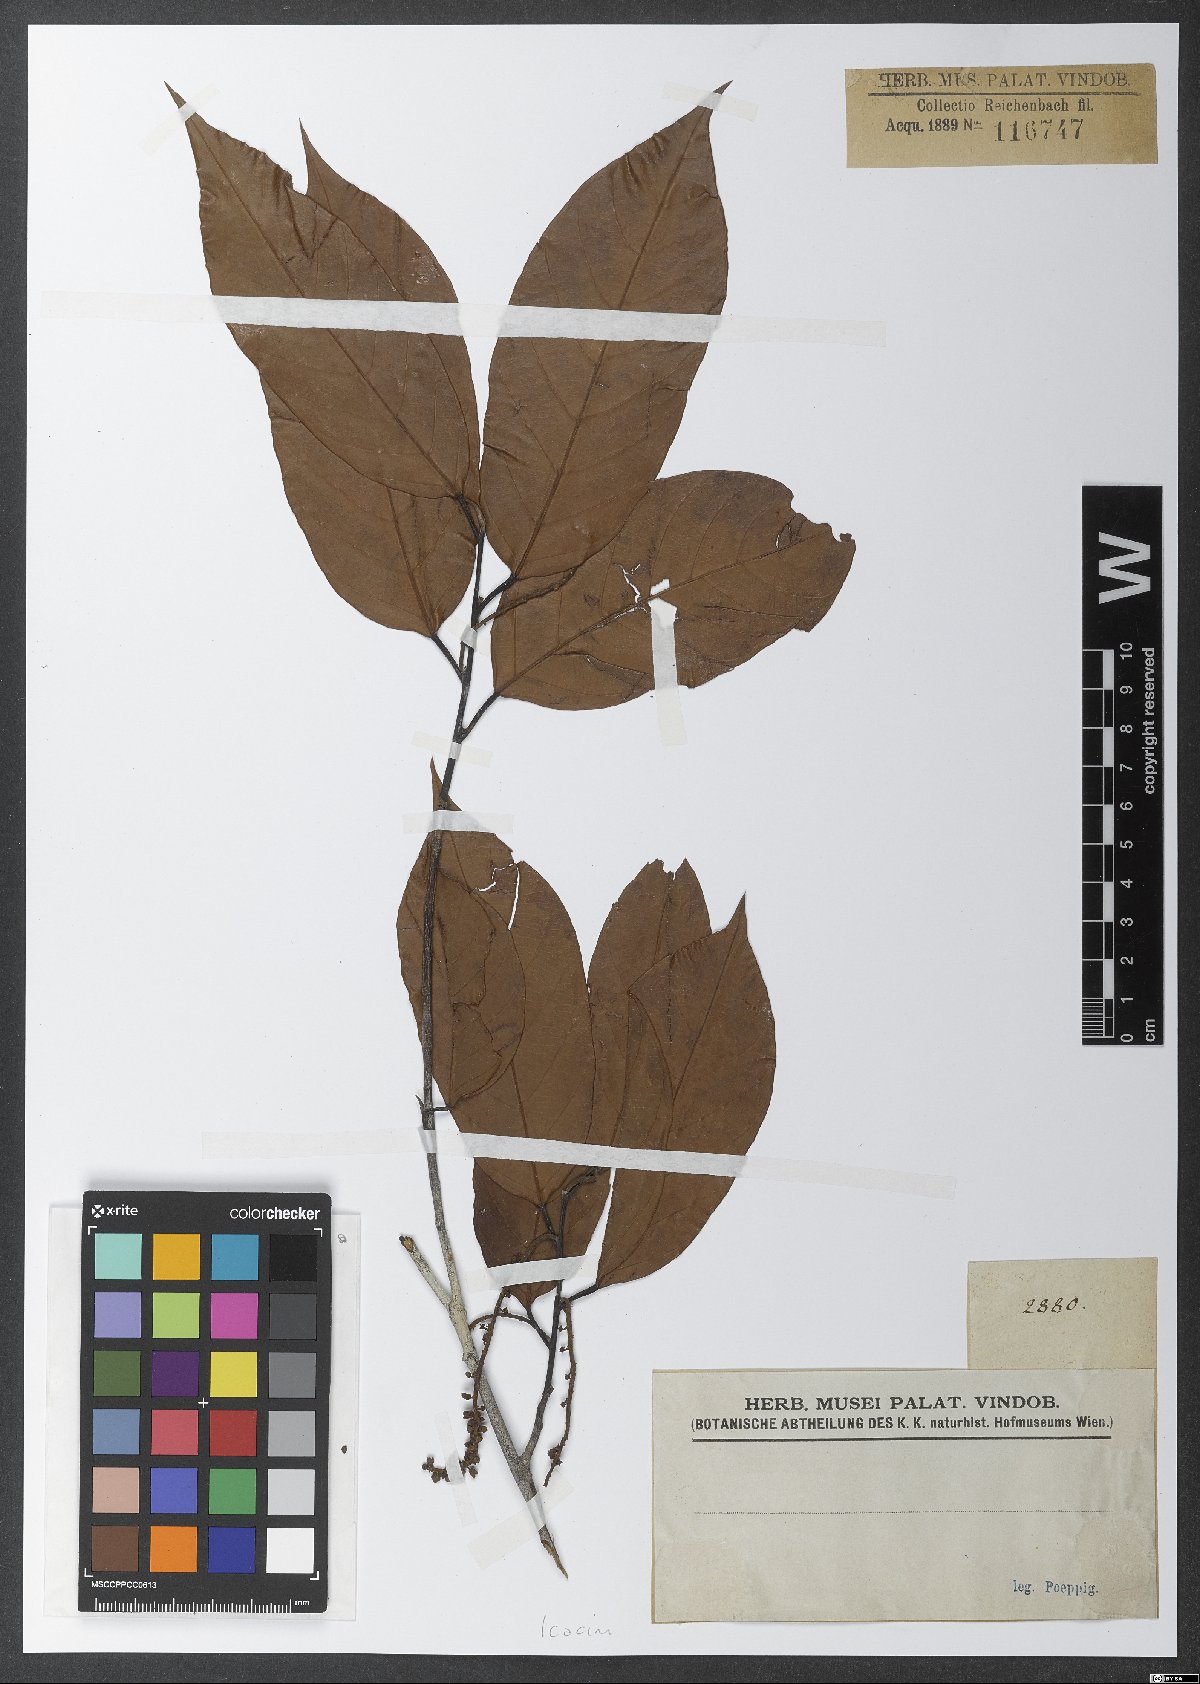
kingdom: Plantae
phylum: Tracheophyta
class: Magnoliopsida
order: Icacinales
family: Icacinaceae
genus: Poraqueiba
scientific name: Poraqueiba
